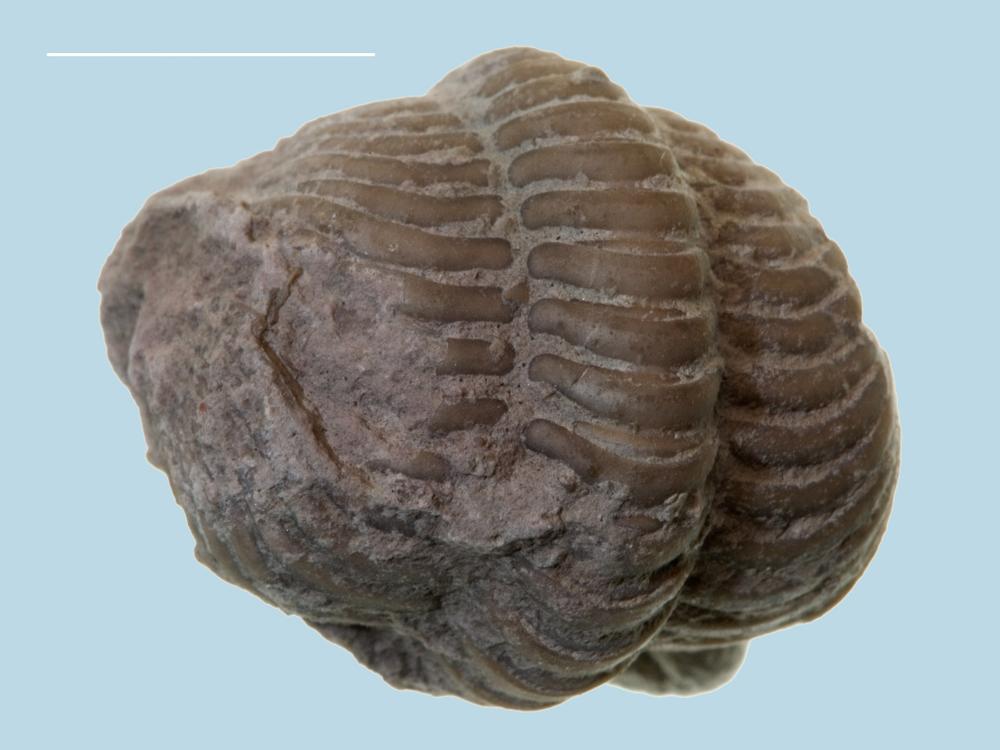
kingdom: Animalia
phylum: Arthropoda
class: Trilobita
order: Phacopida
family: Pliomeridae
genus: Pliomera
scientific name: Pliomera Asaphus fisheri
